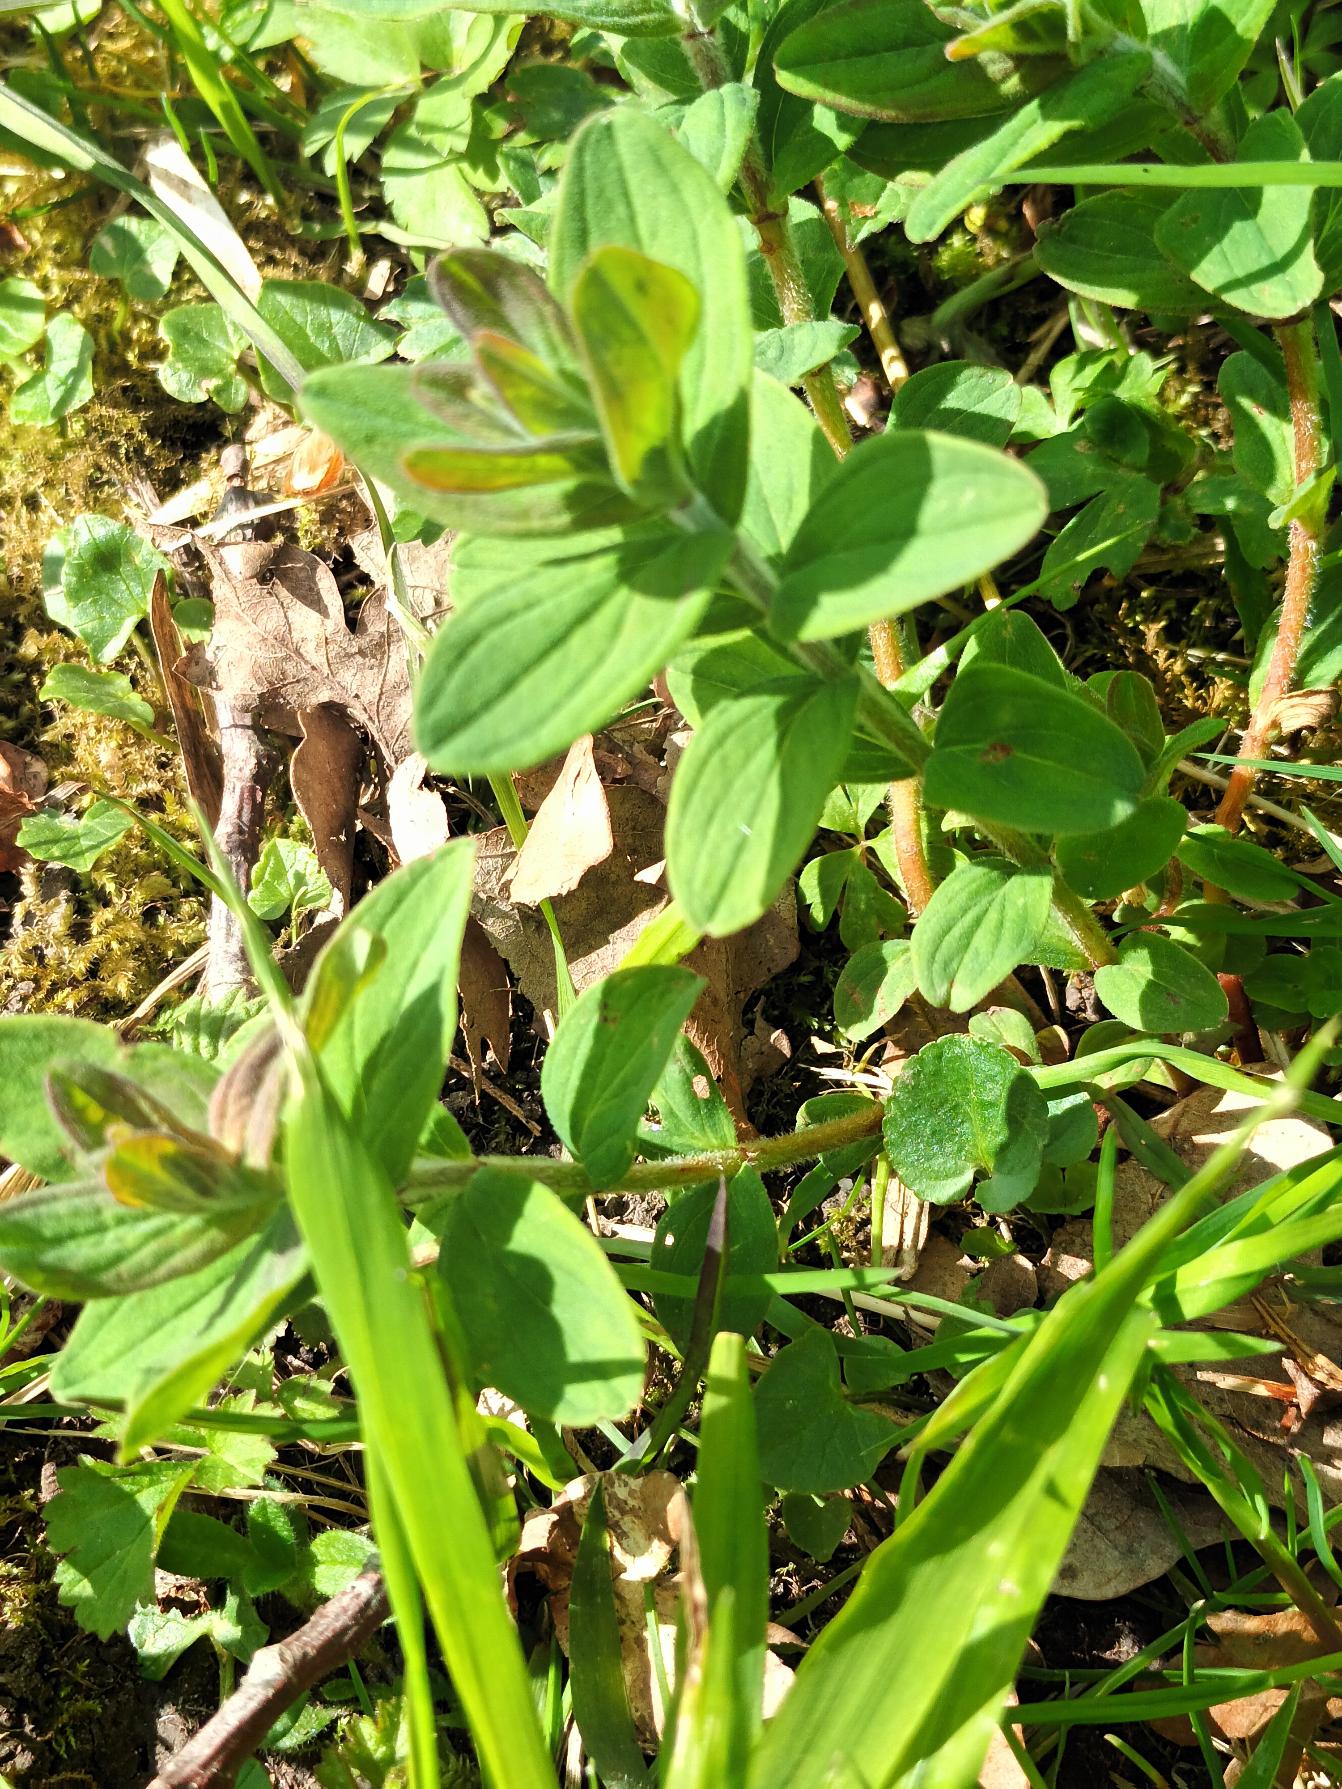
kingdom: Plantae
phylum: Tracheophyta
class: Magnoliopsida
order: Malpighiales
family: Hypericaceae
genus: Hypericum
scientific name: Hypericum hirsutum
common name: Lådden perikon
